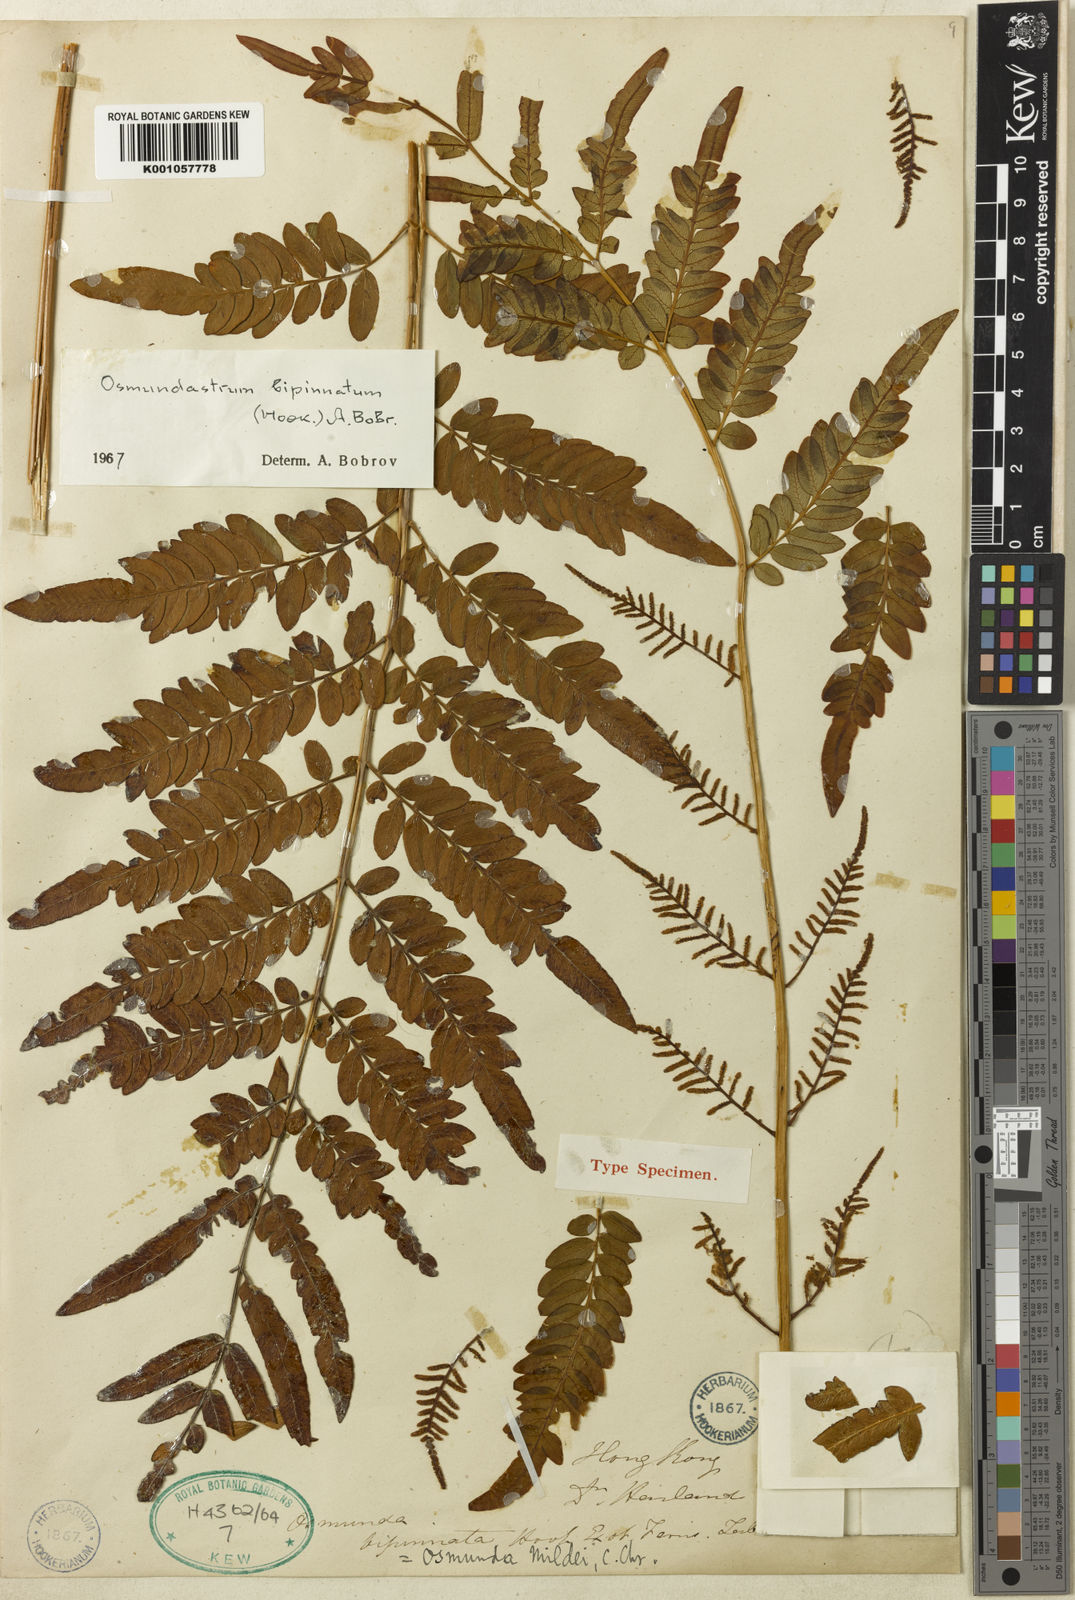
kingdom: Plantae
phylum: Tracheophyta
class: Polypodiopsida
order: Osmundales
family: Osmundaceae
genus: Osmunasium
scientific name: Osmunasium mildei
